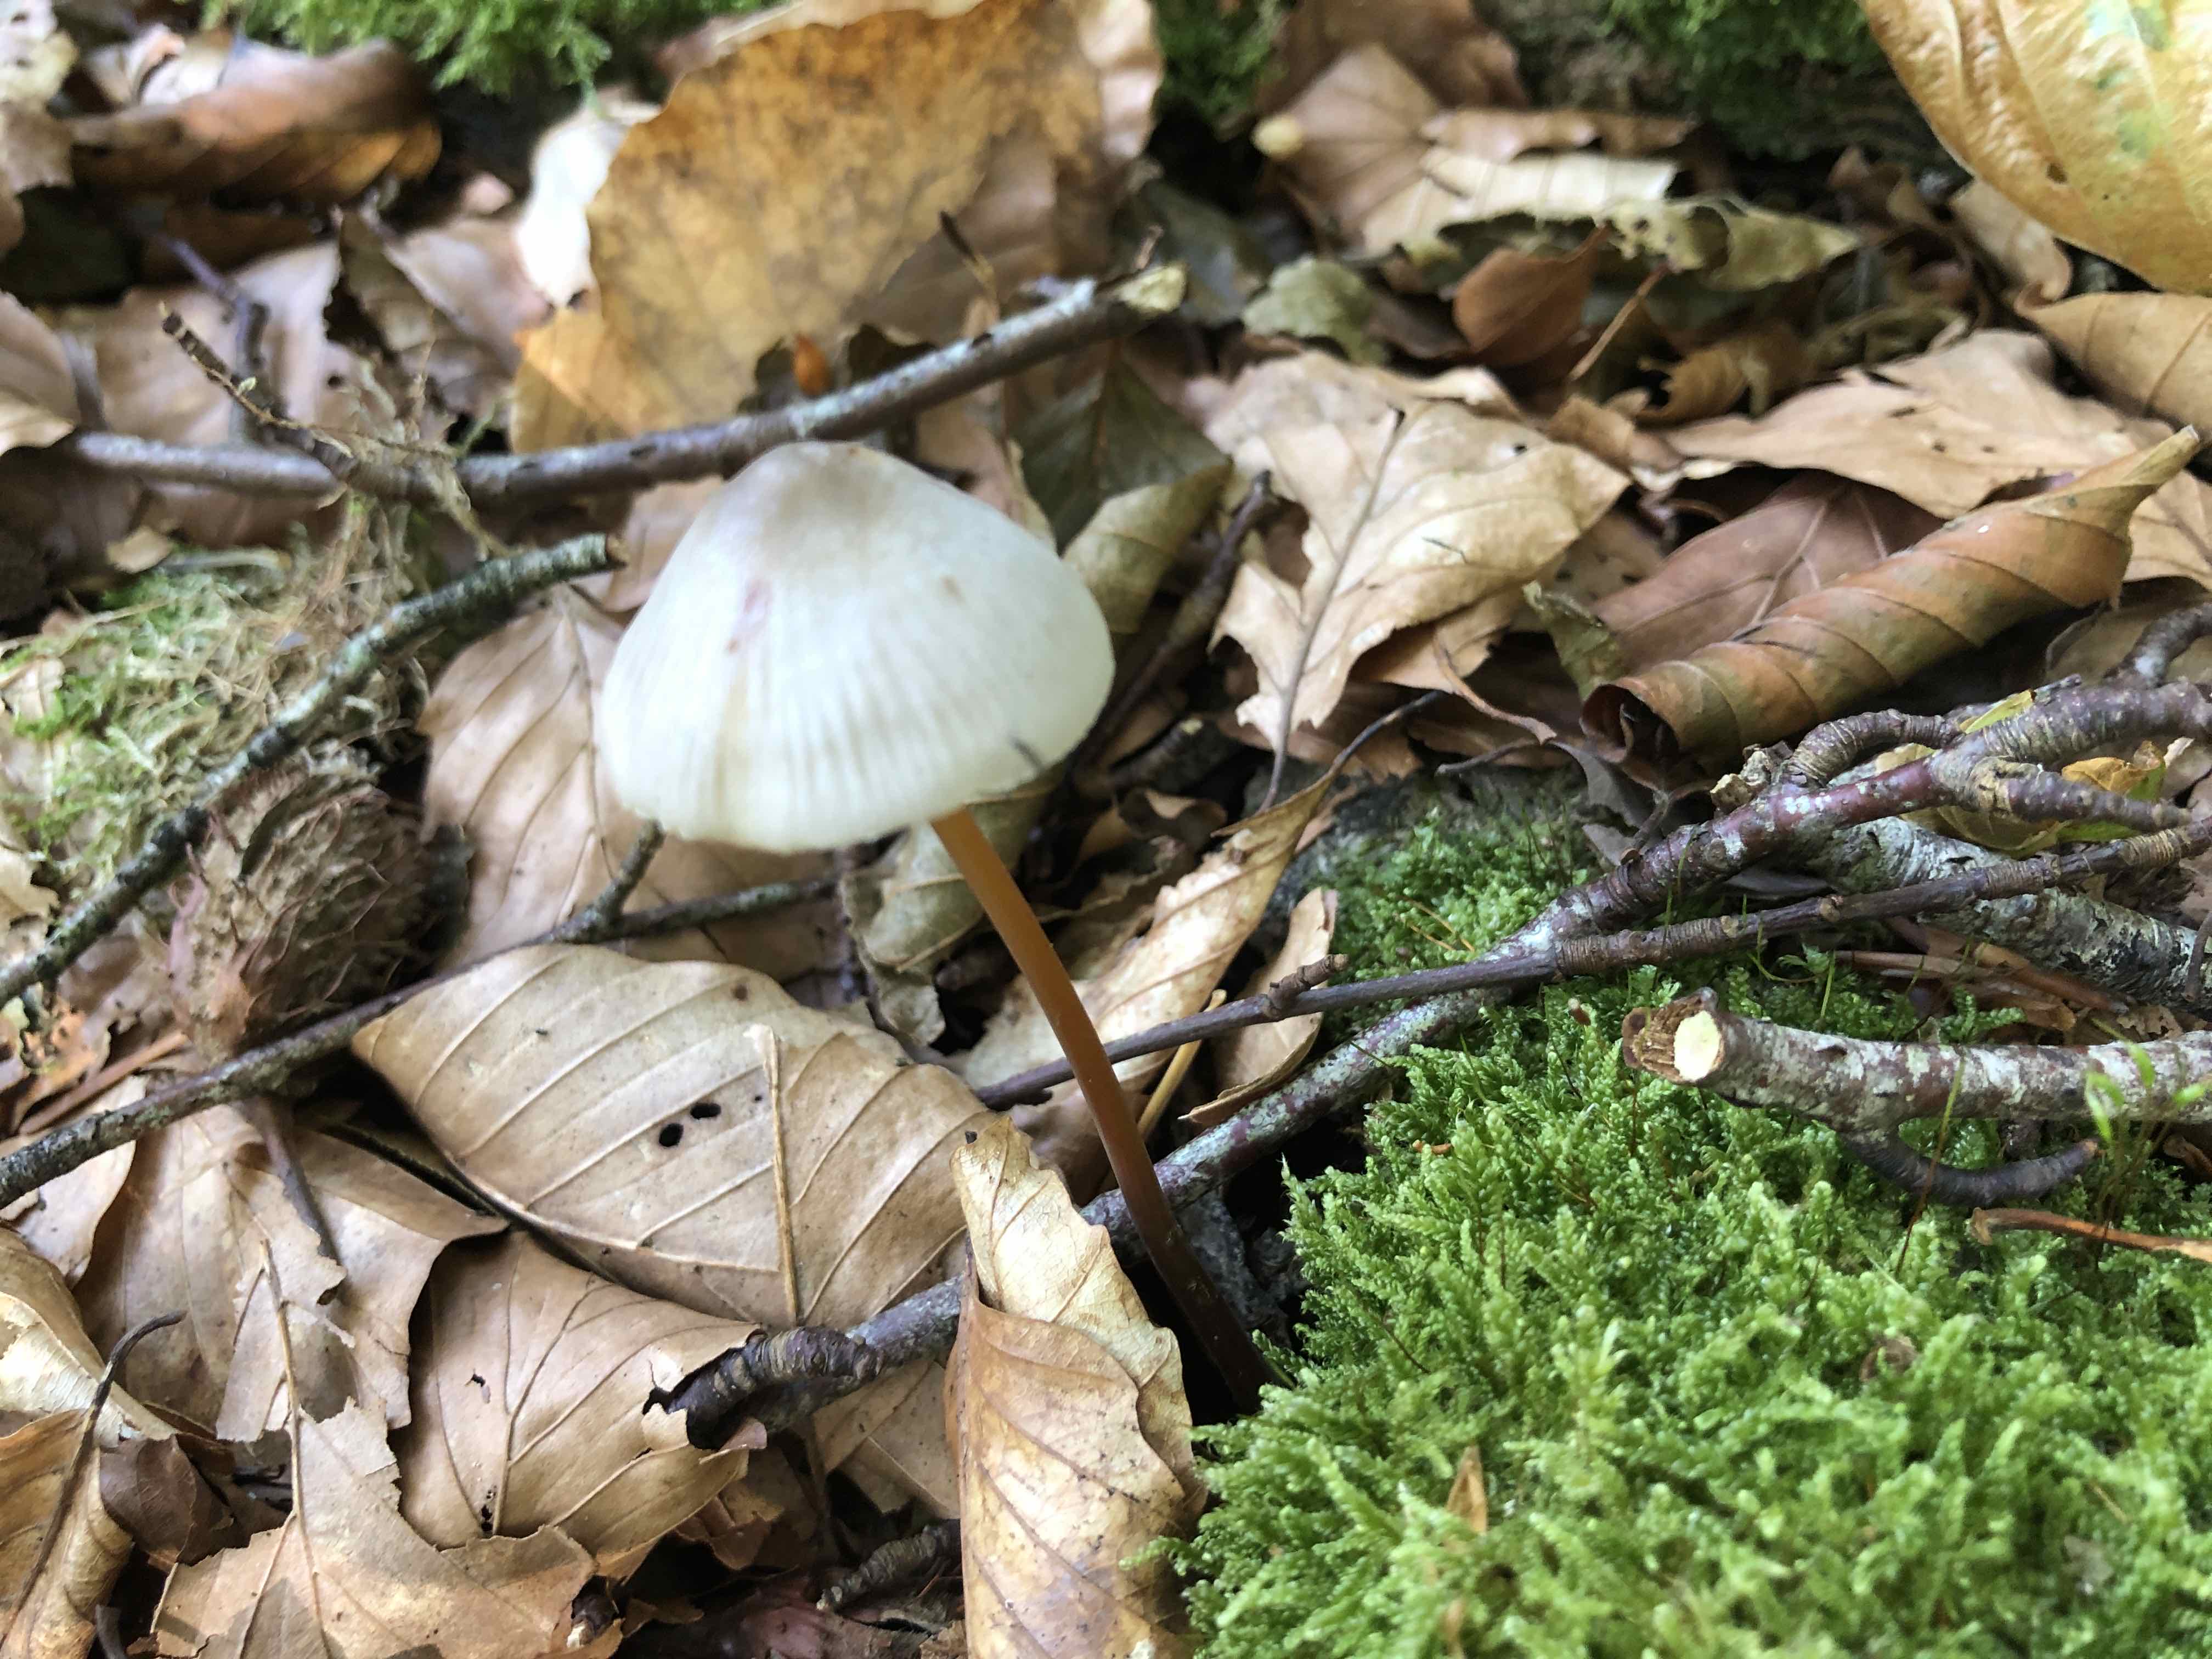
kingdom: Fungi
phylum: Basidiomycota
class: Agaricomycetes
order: Agaricales
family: Mycenaceae
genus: Mycena
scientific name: Mycena crocata
